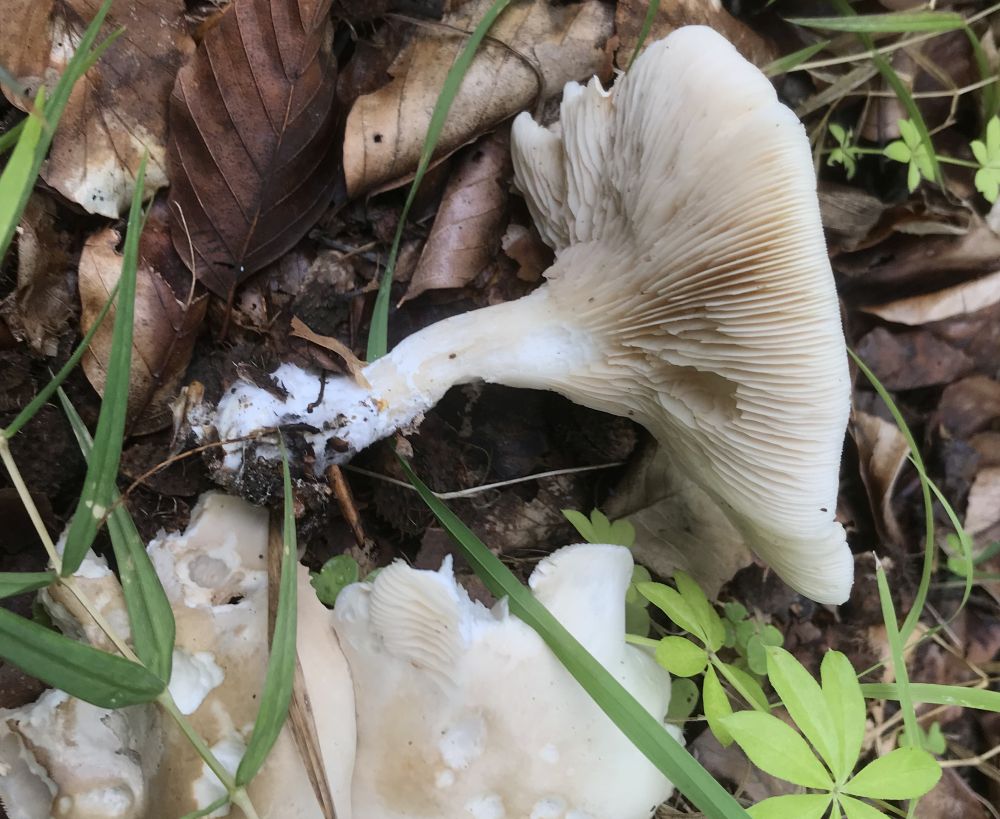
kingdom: Fungi
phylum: Basidiomycota
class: Agaricomycetes
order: Agaricales
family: Entolomataceae
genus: Clitopilus
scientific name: Clitopilus prunulus
